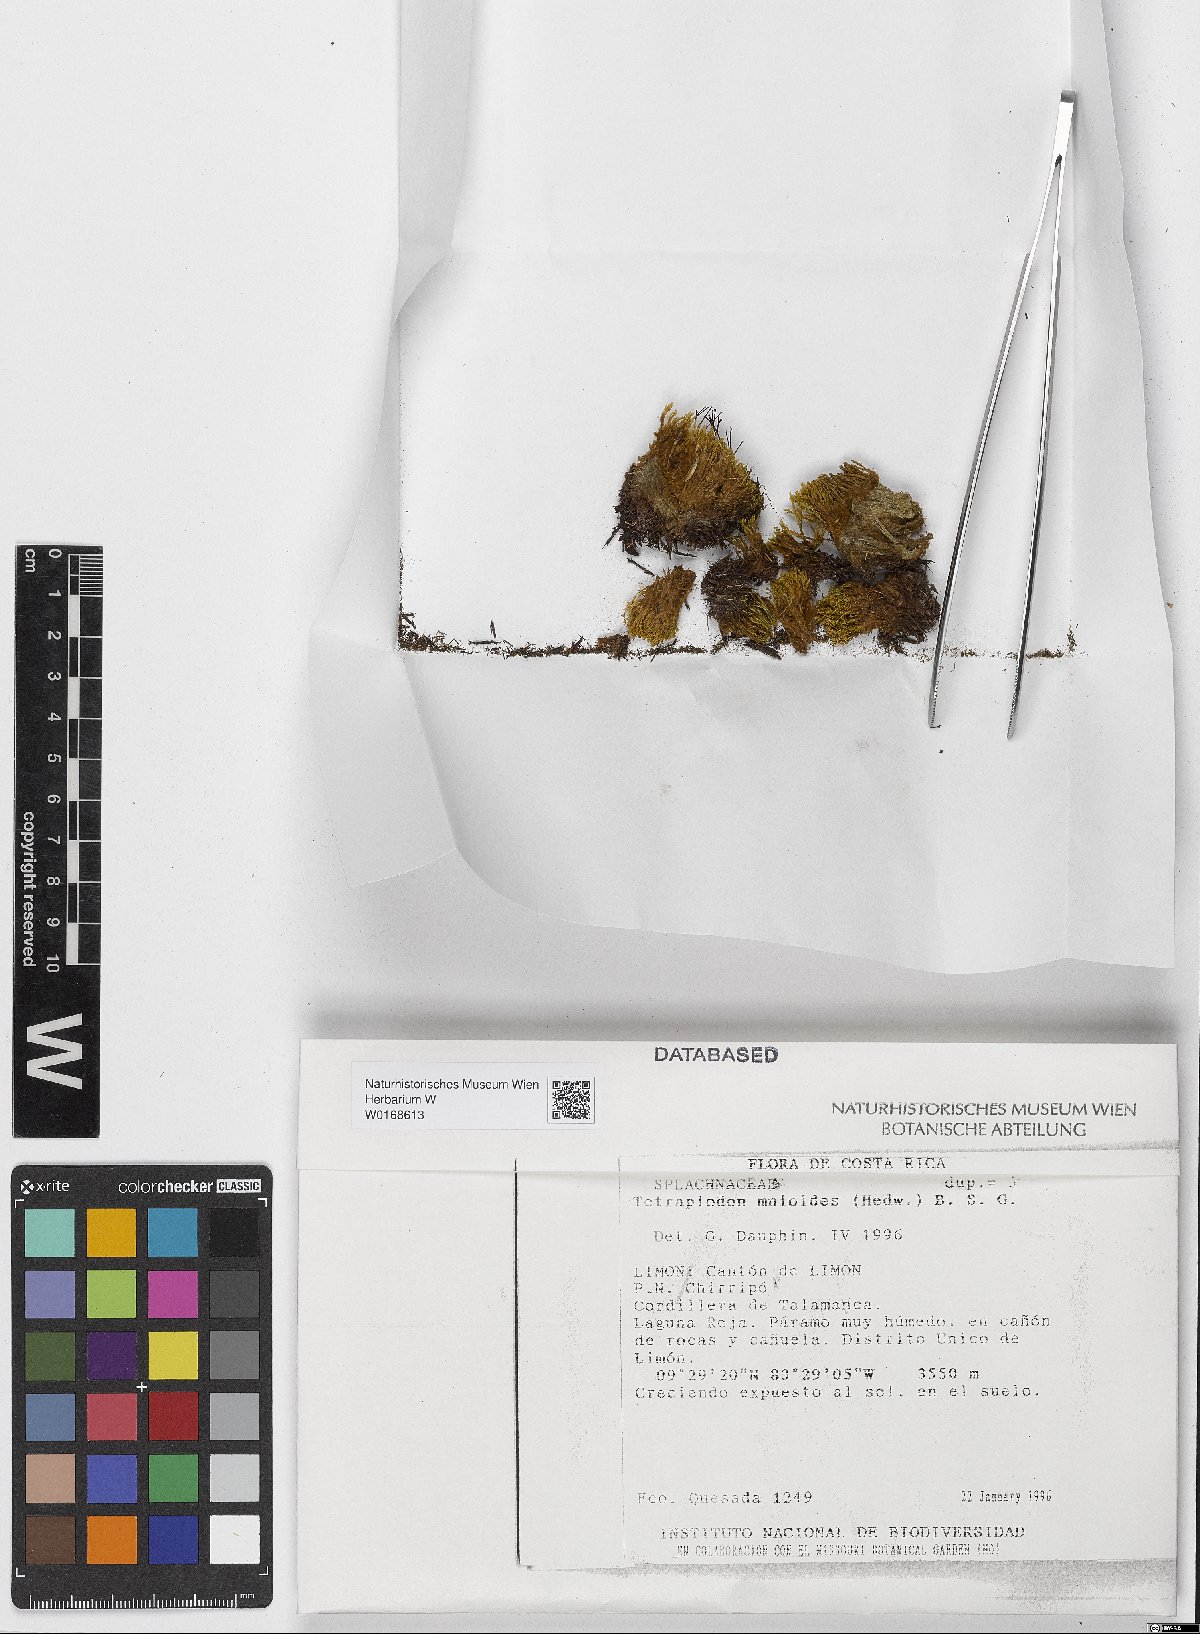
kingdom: Plantae
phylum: Bryophyta
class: Bryopsida
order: Splachnales
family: Splachnaceae
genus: Tetraplodon
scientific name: Tetraplodon mnioides
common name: Entire-leaved nitrogen moss
